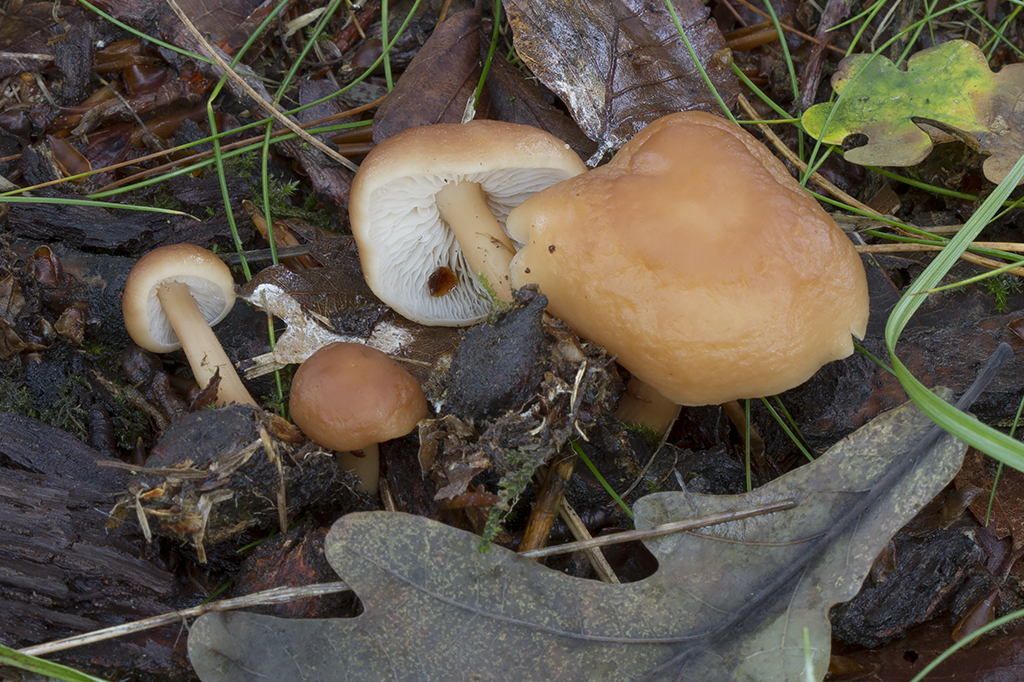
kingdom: Fungi
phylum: Basidiomycota
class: Agaricomycetes
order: Agaricales
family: Omphalotaceae
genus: Gymnopus
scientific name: Gymnopus ocior
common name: mørk fladhat
